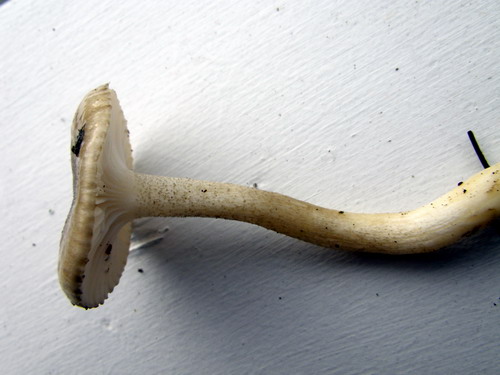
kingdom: Fungi
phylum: Basidiomycota
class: Agaricomycetes
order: Agaricales
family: Hygrophoraceae
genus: Hygrophorus
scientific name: Hygrophorus pustulatus
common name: mørkprikket sneglehat
